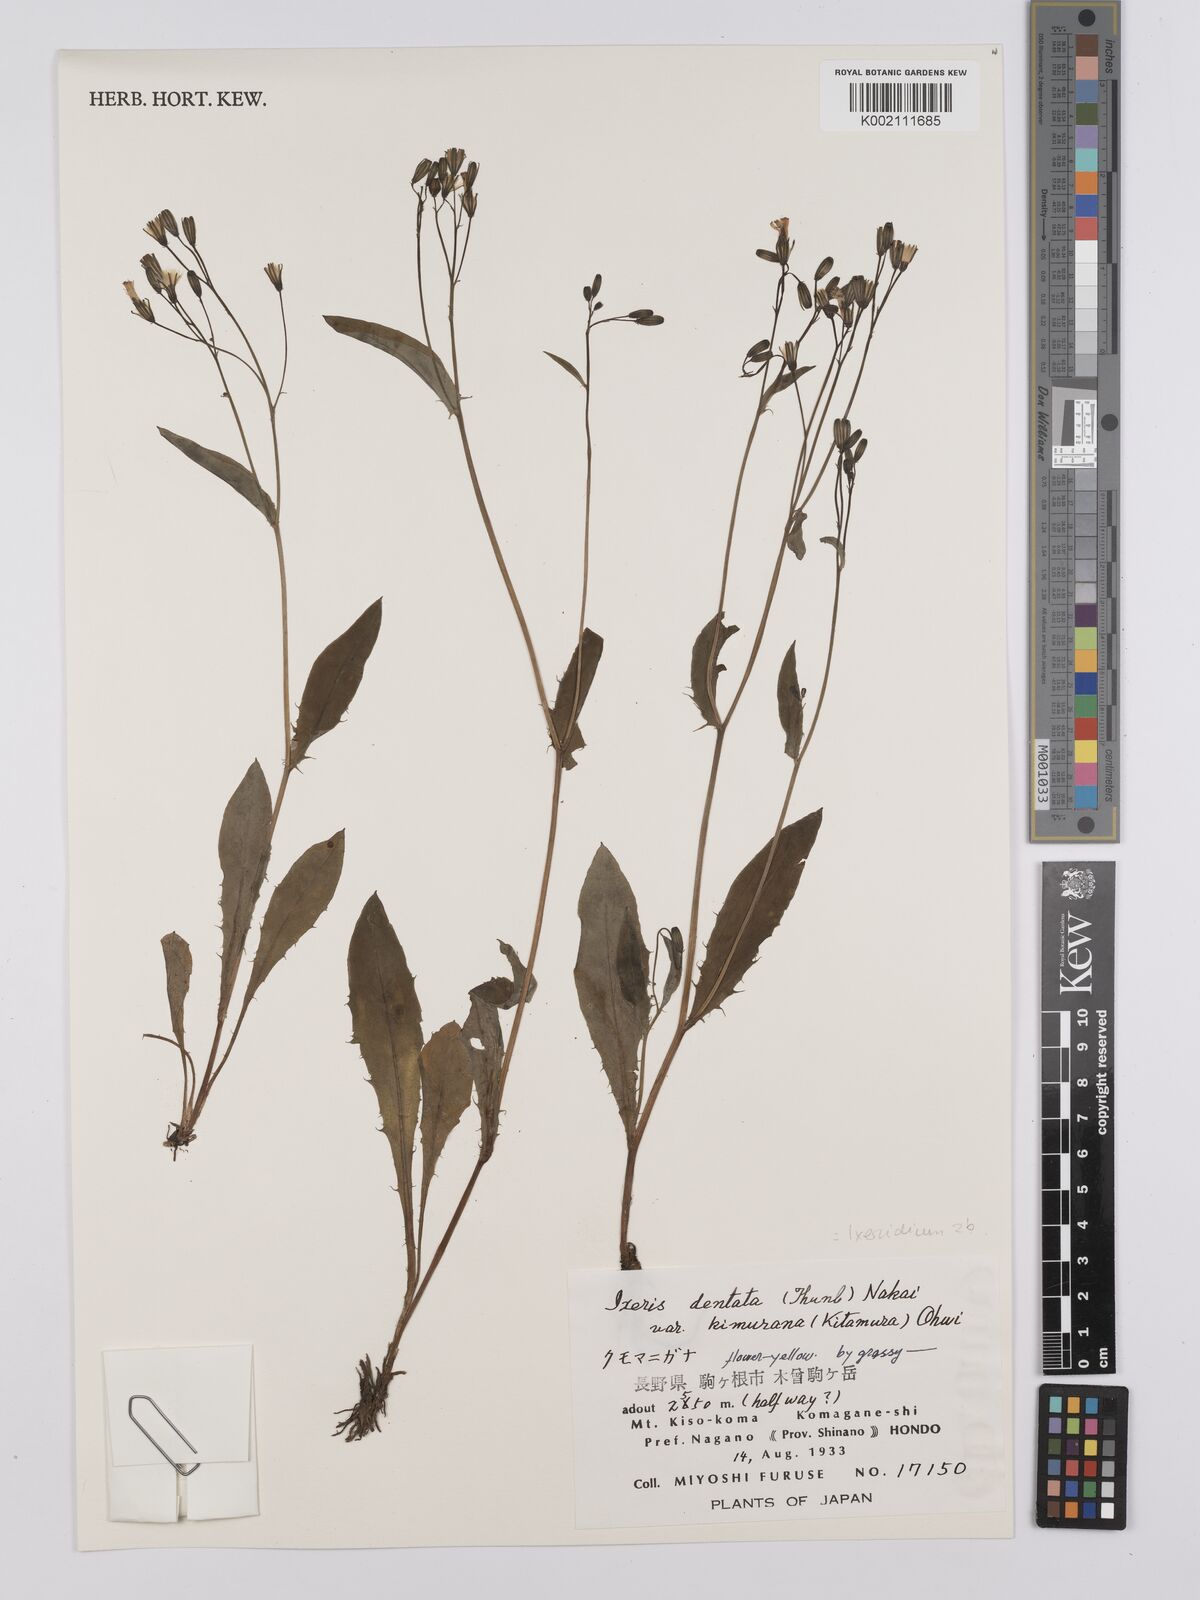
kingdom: Plantae
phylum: Tracheophyta
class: Magnoliopsida
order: Asterales
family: Asteraceae
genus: Ixeridium
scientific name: Ixeridium dentatum
